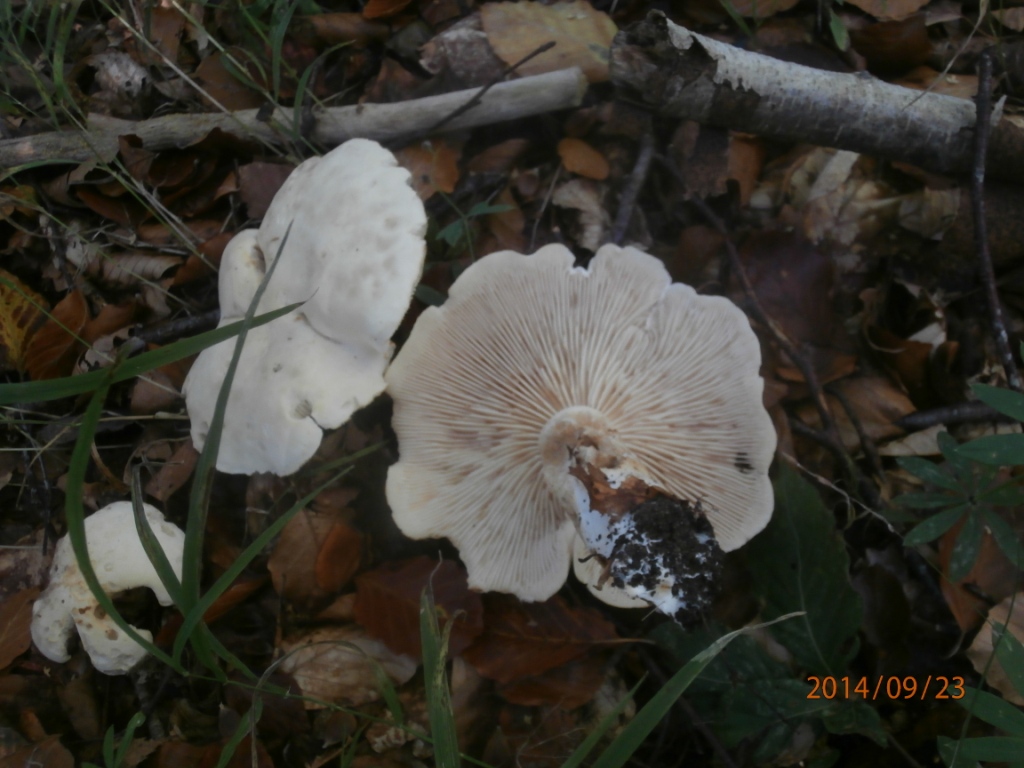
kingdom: Fungi
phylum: Basidiomycota
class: Agaricomycetes
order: Agaricales
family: Tricholomataceae
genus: Tricholoma
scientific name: Tricholoma stiparophyllum
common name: hvid ridderhat
